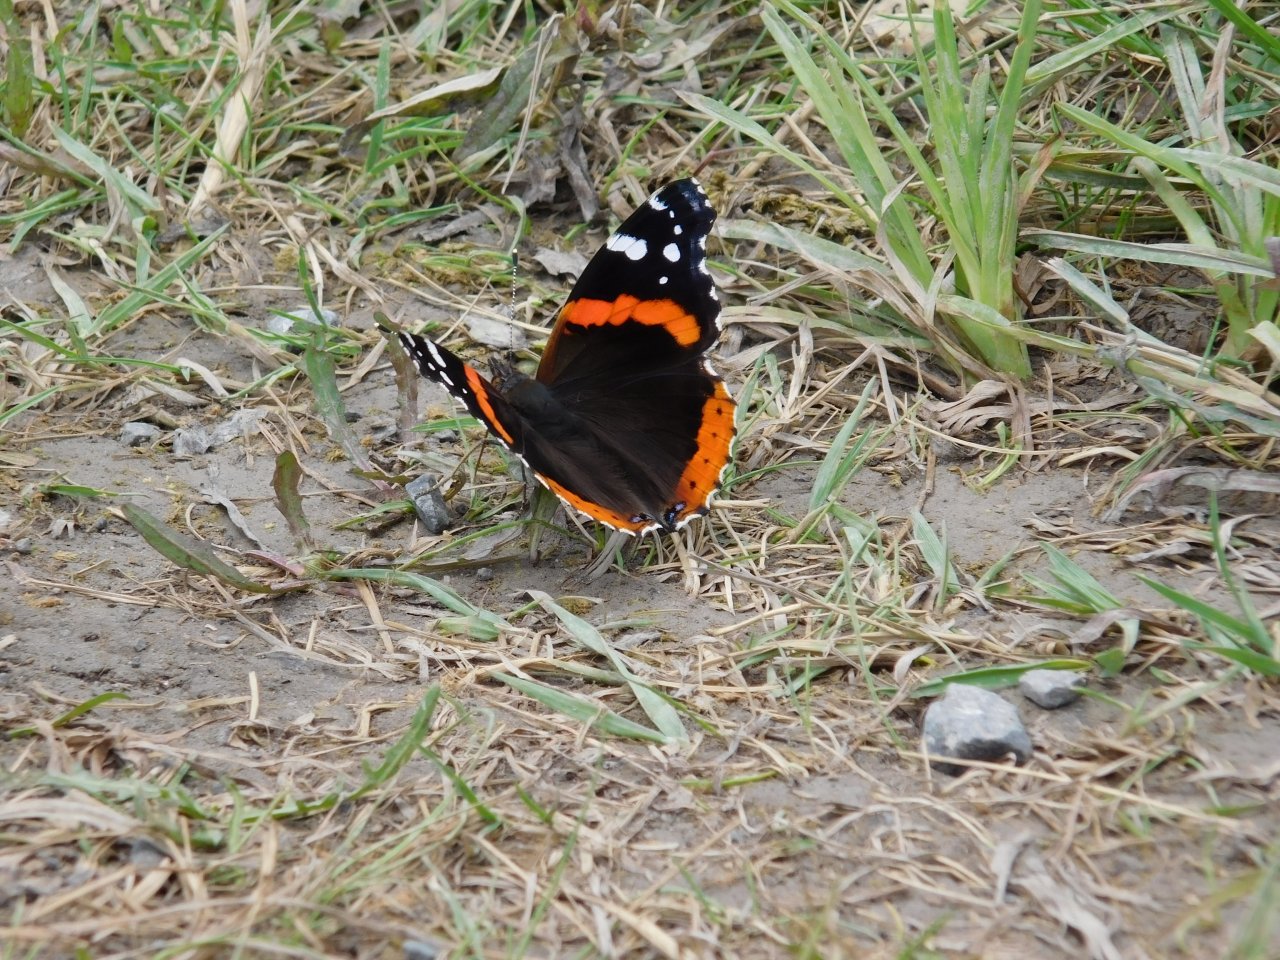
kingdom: Animalia
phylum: Arthropoda
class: Insecta
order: Lepidoptera
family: Nymphalidae
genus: Vanessa
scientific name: Vanessa atalanta
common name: Red Admiral
